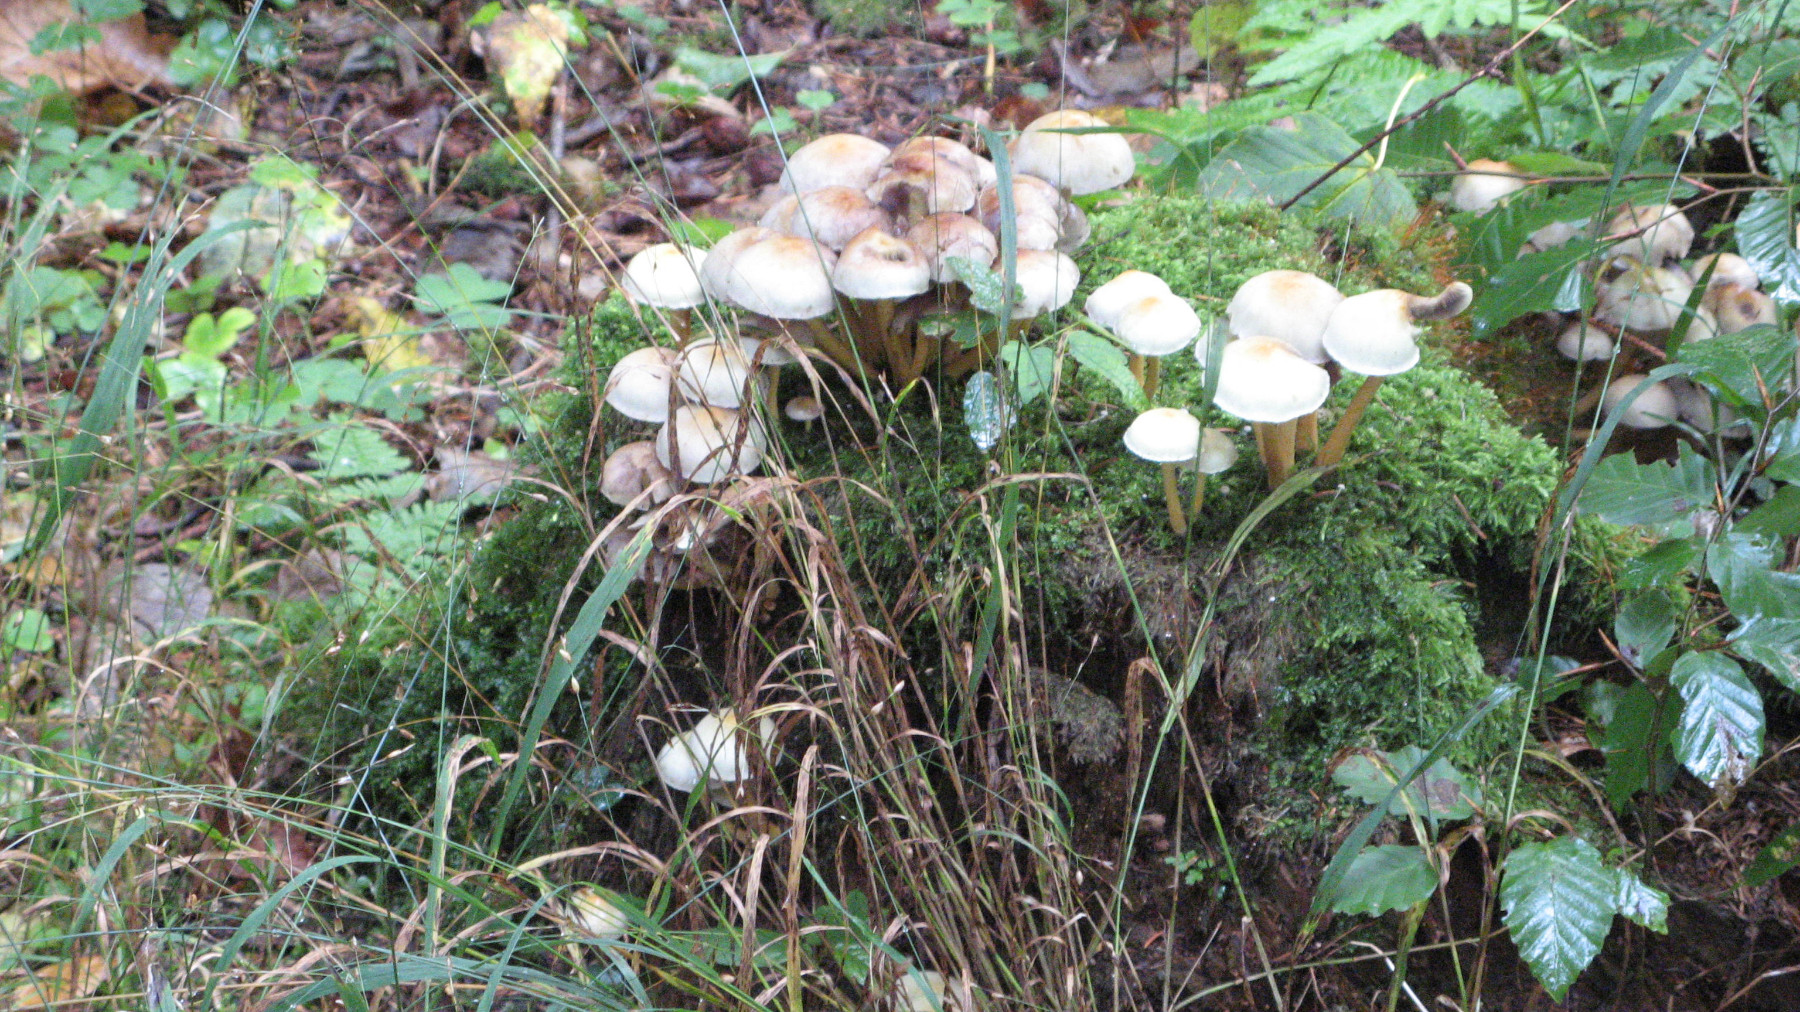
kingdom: Fungi
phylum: Basidiomycota
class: Agaricomycetes
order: Agaricales
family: Strophariaceae
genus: Hypholoma
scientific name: Hypholoma fasciculare
